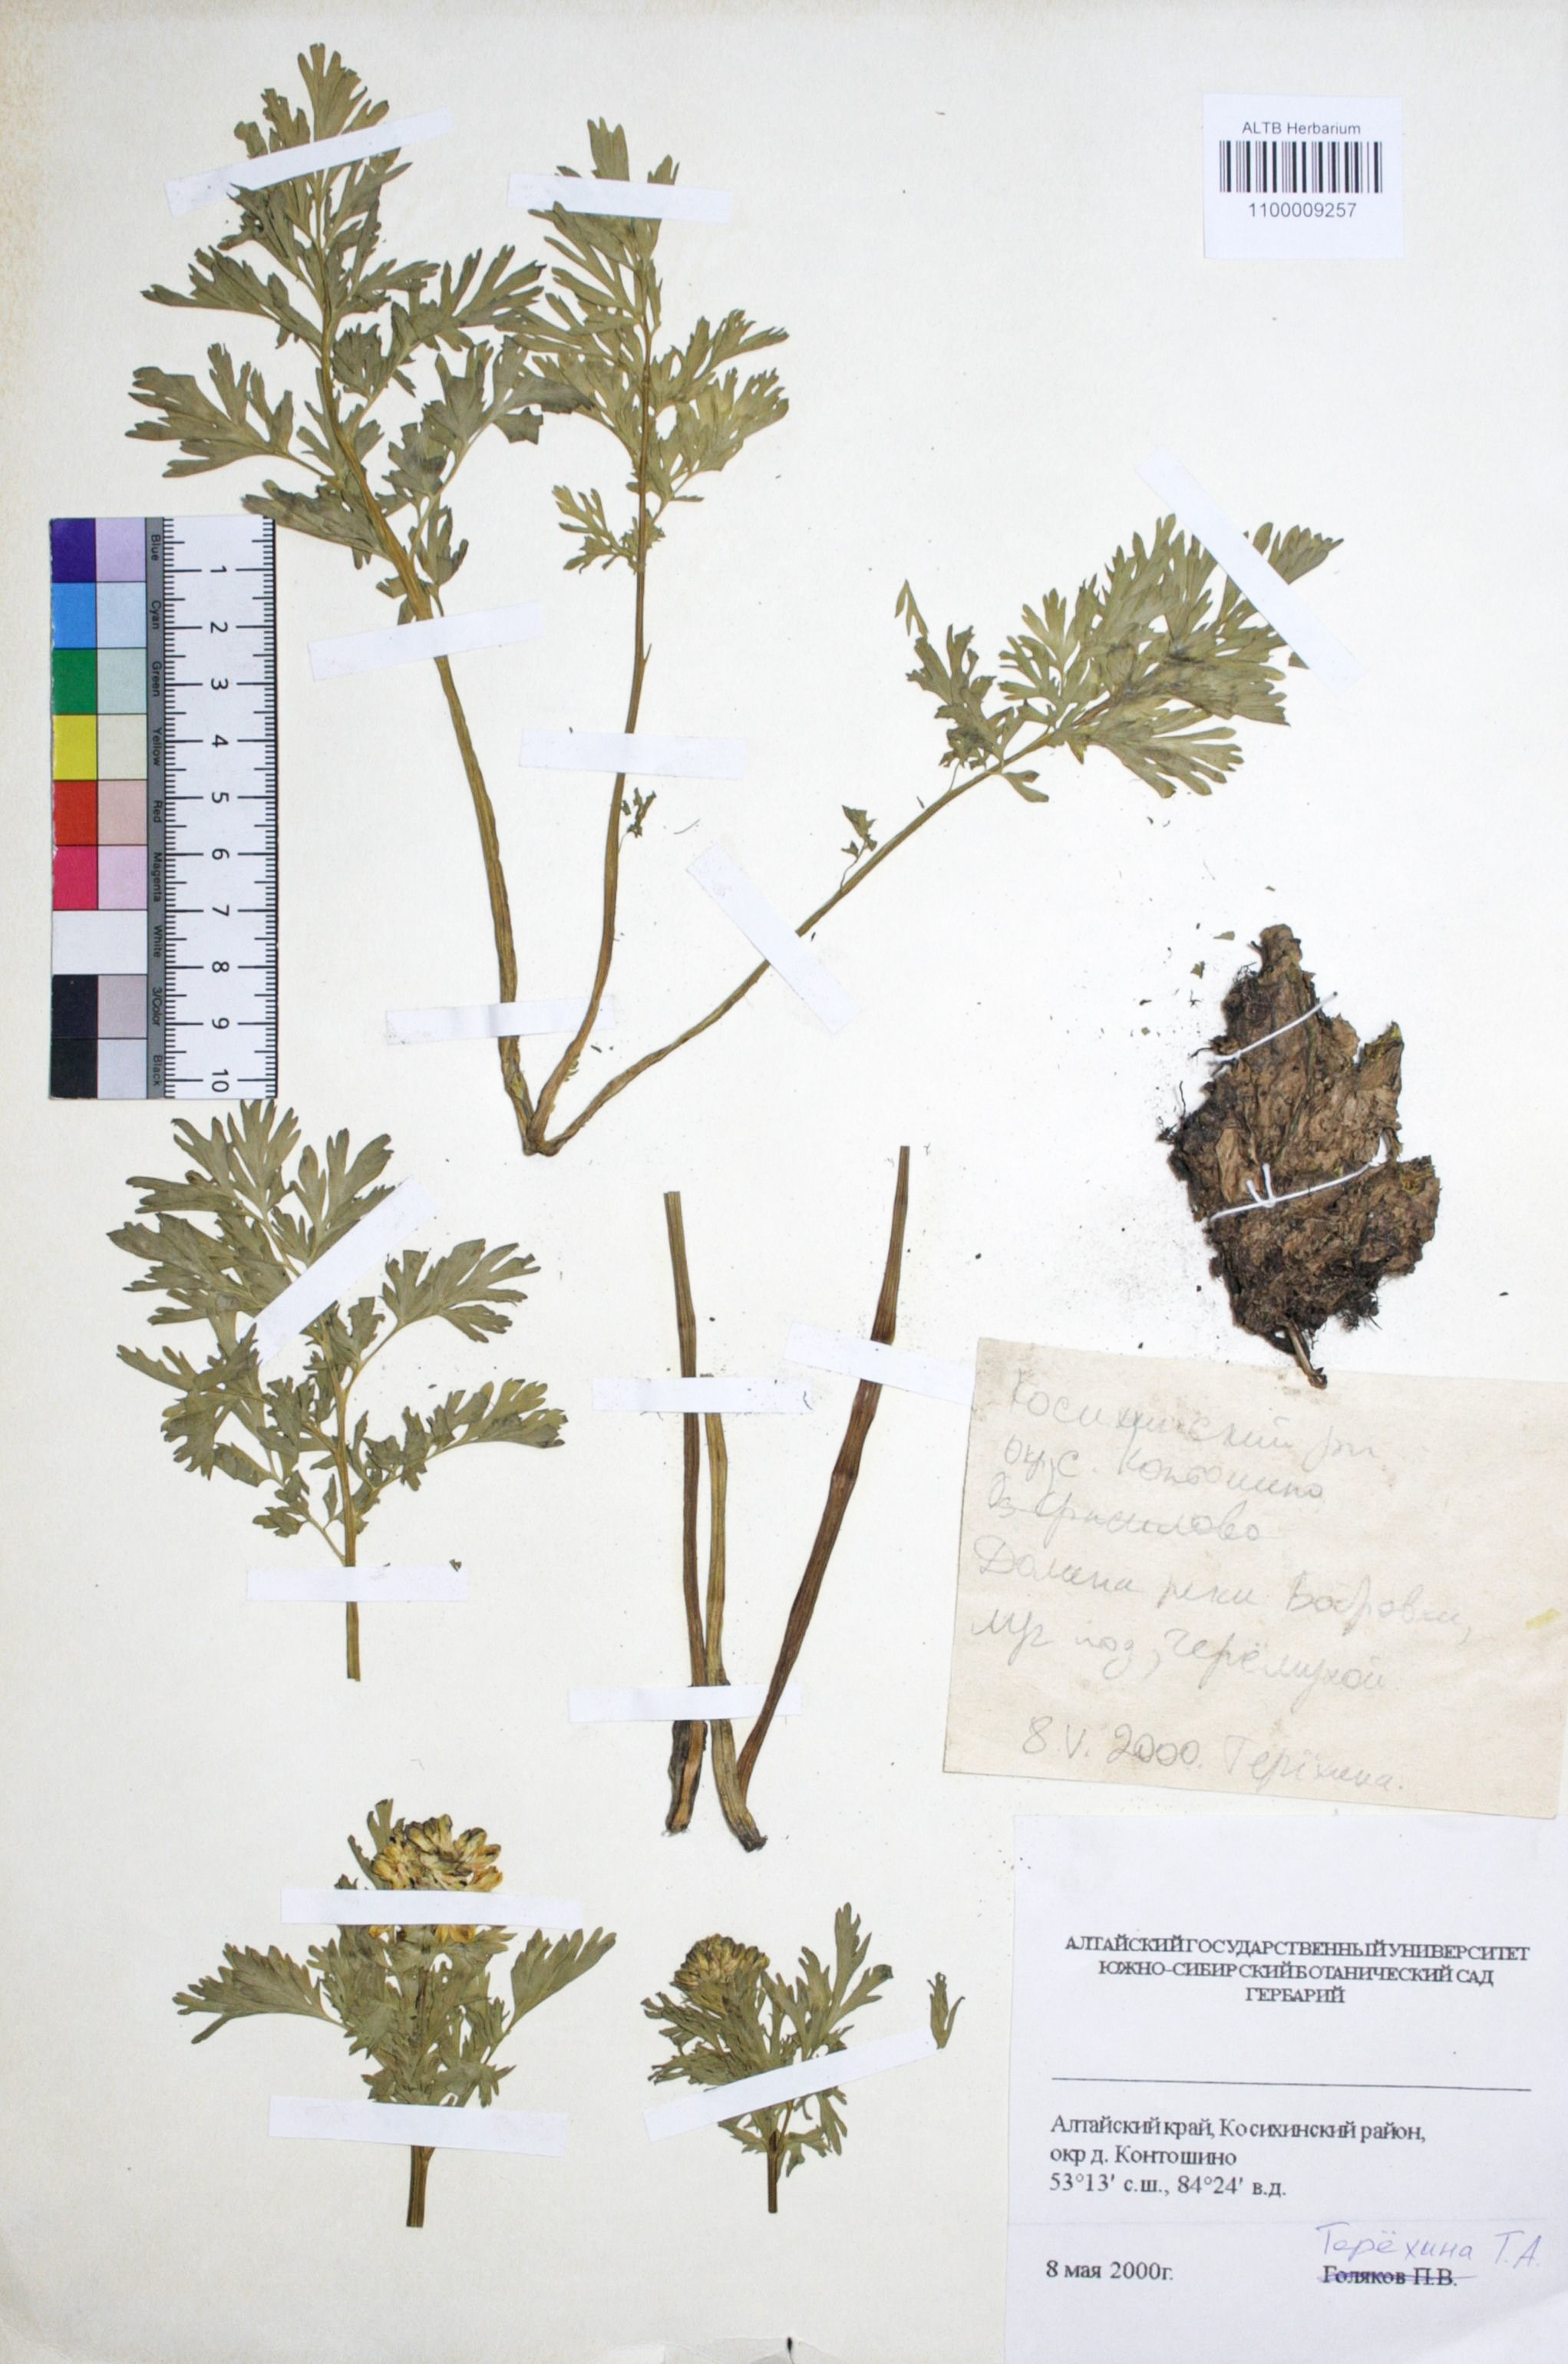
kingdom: Plantae
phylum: Tracheophyta
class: Magnoliopsida
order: Ranunculales
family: Papaveraceae
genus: Corydalis
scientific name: Corydalis bracteata
